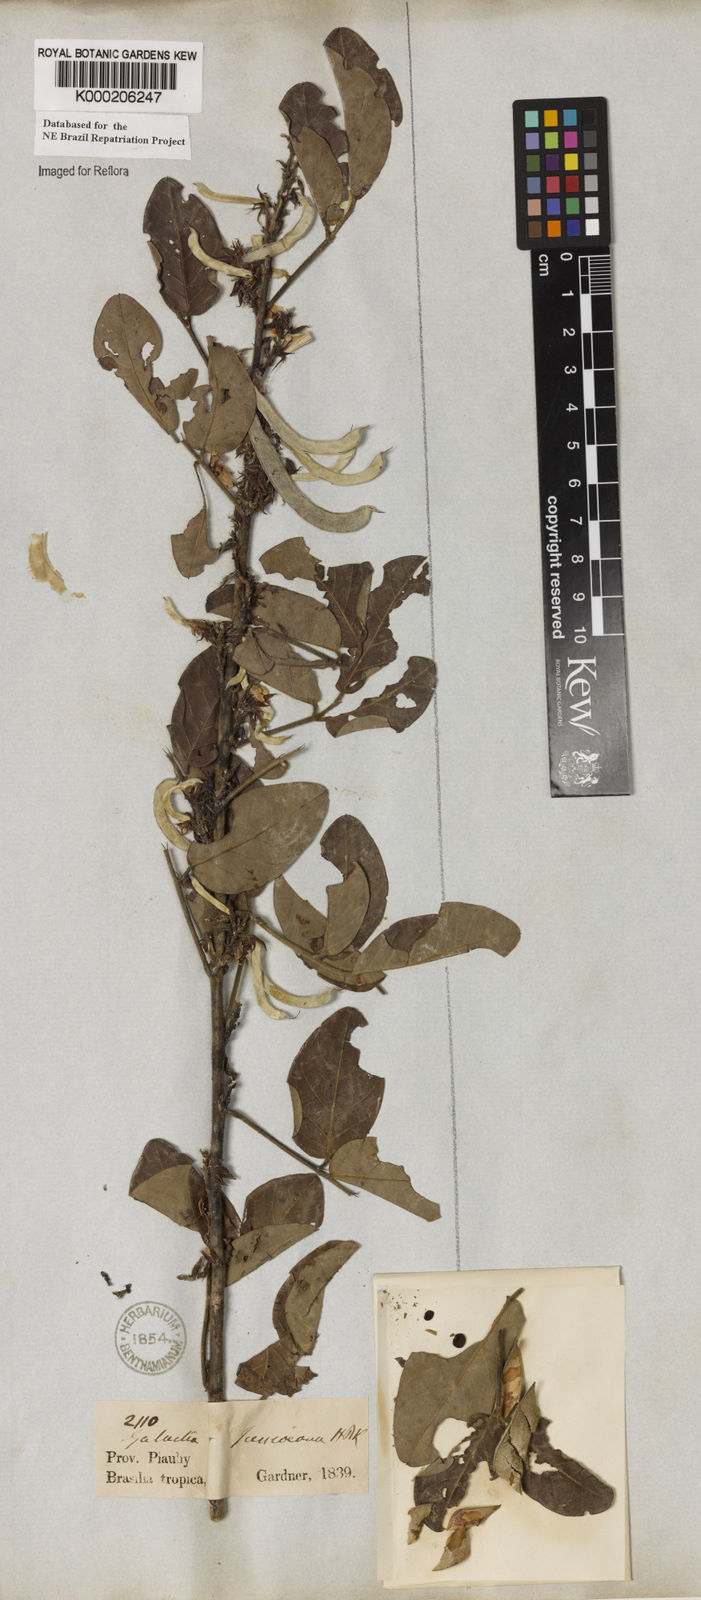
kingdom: Plantae
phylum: Tracheophyta
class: Magnoliopsida
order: Fabales
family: Fabaceae
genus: Galactia
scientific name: Galactia jussiaeana
